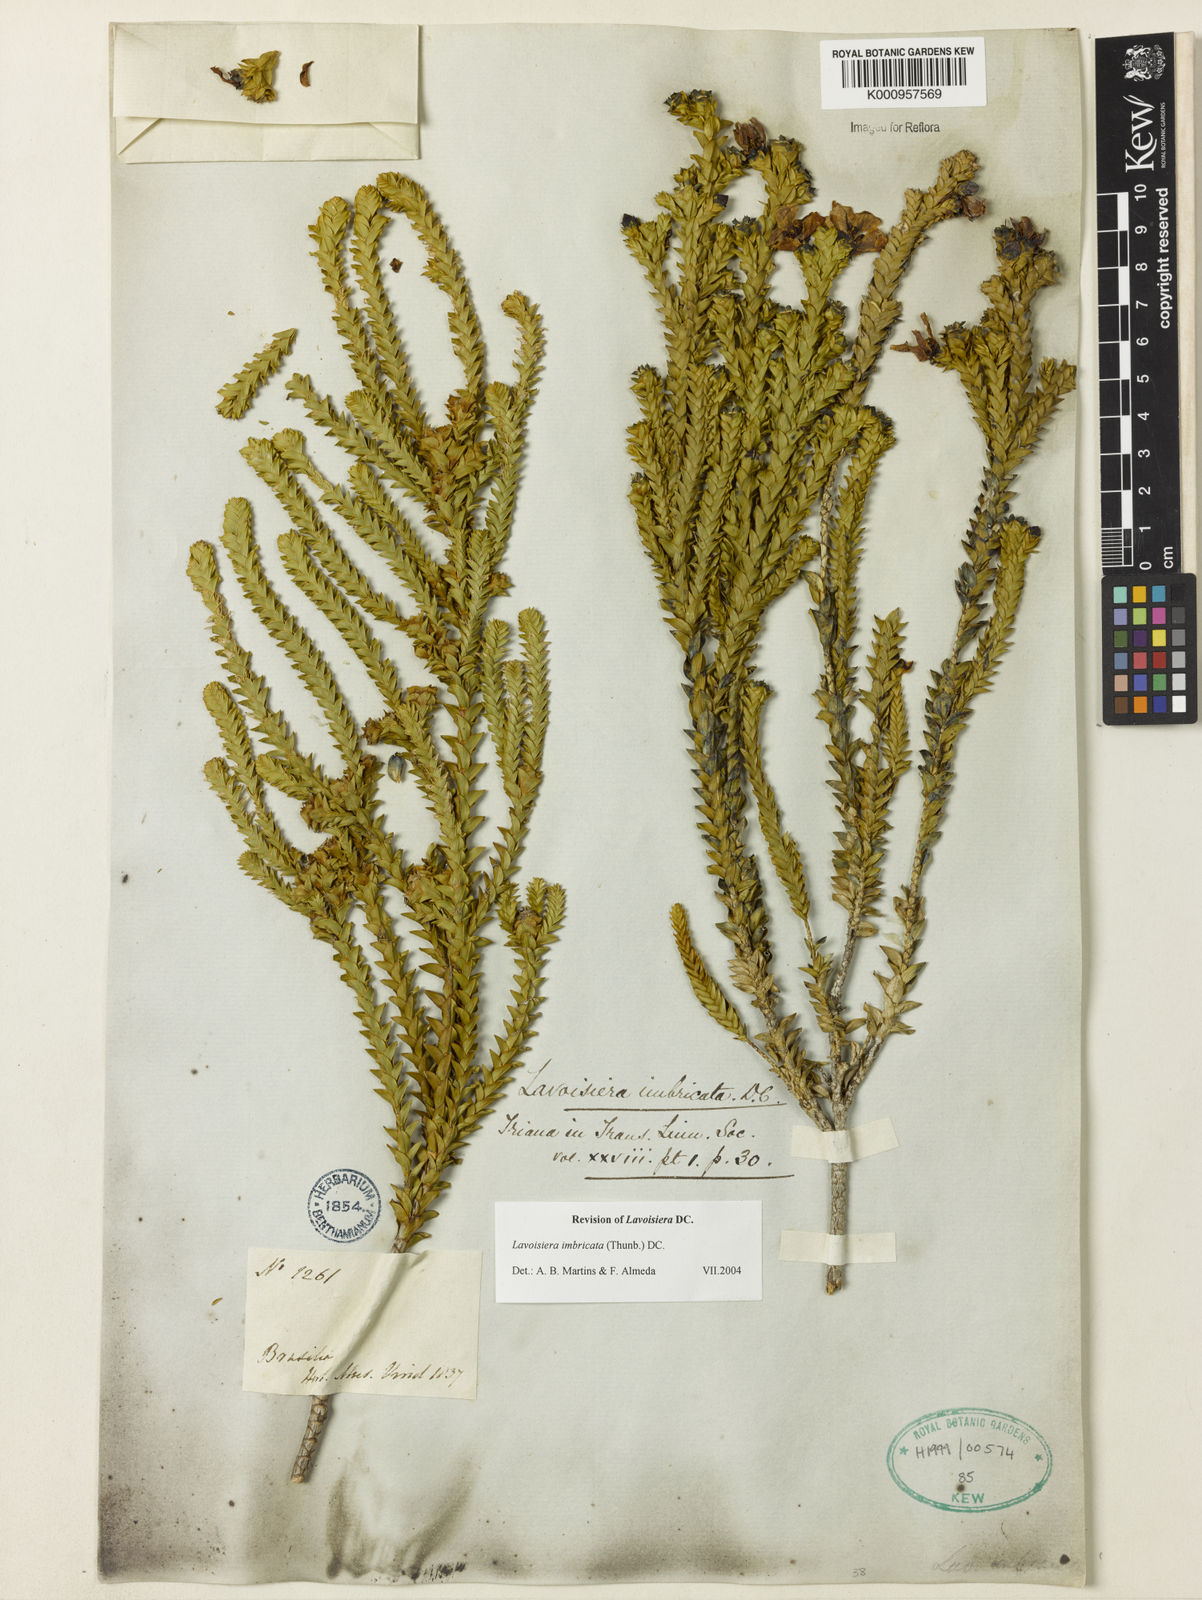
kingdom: Plantae
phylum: Tracheophyta
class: Magnoliopsida
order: Myrtales
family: Melastomataceae
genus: Microlicia
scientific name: Microlicia cataphracta
